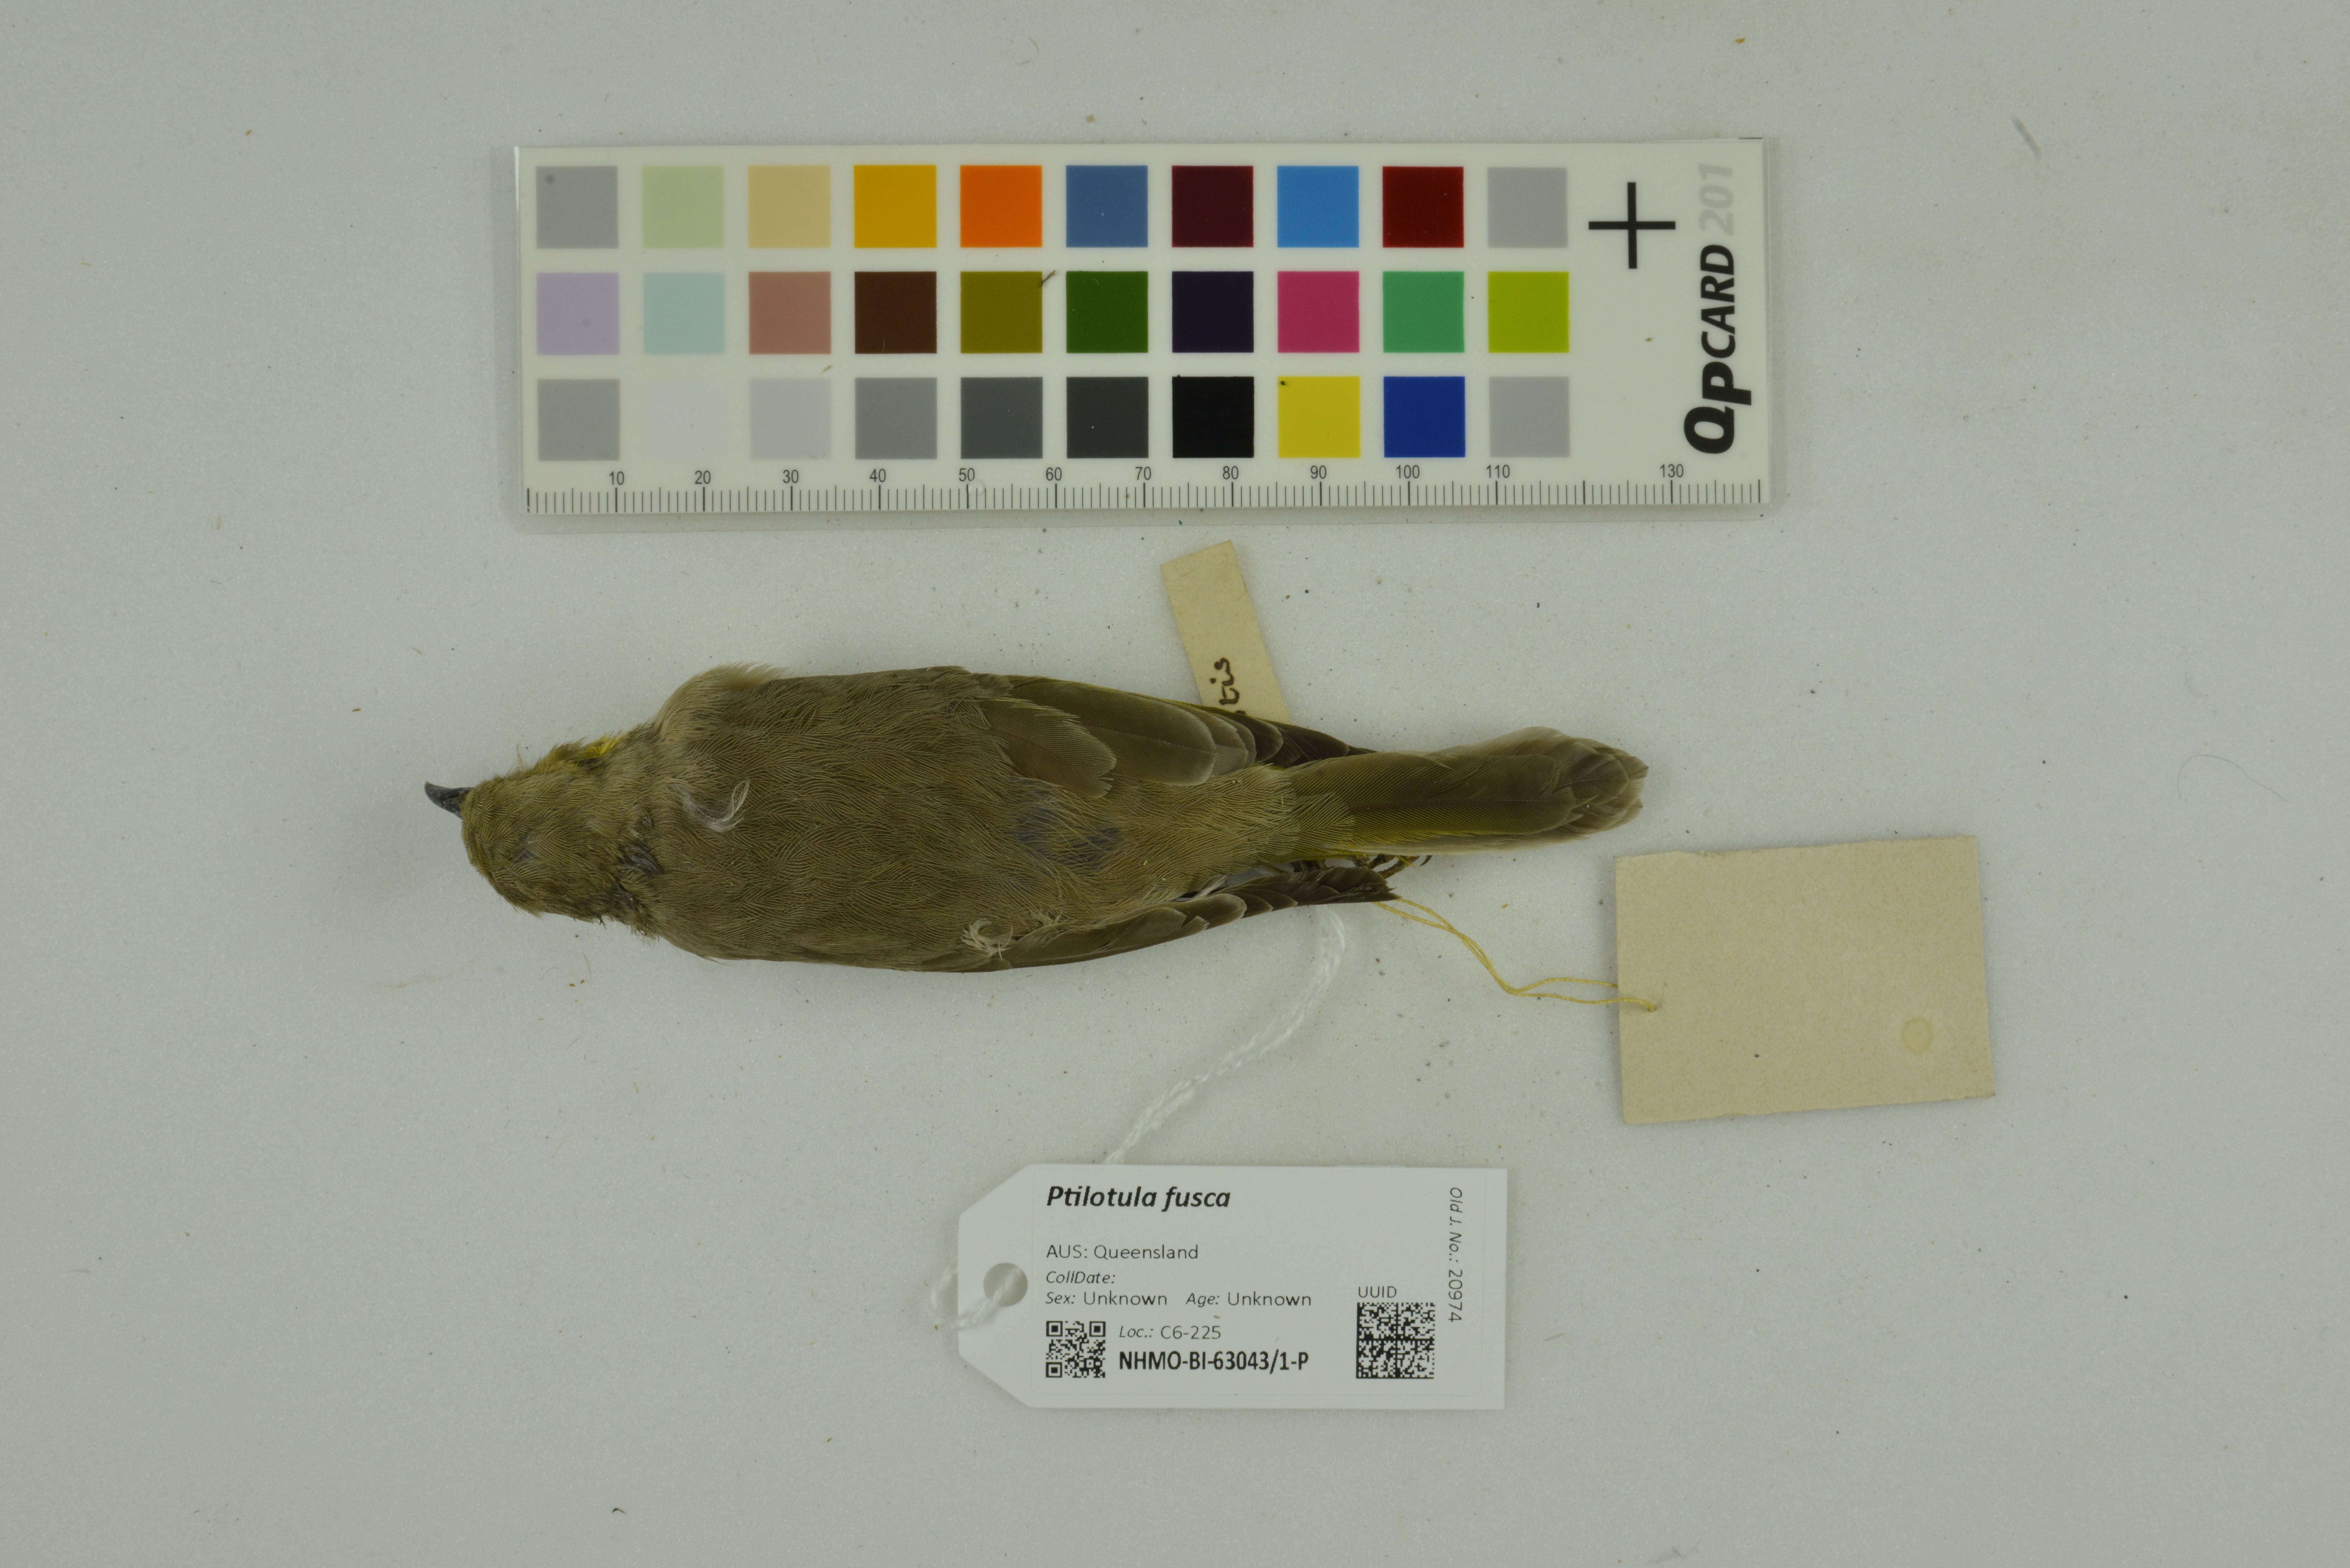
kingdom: Animalia
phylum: Chordata
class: Aves
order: Passeriformes
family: Meliphagidae
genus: Ptilotula
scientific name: Ptilotula fusca
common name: Fuscous honeyeater
